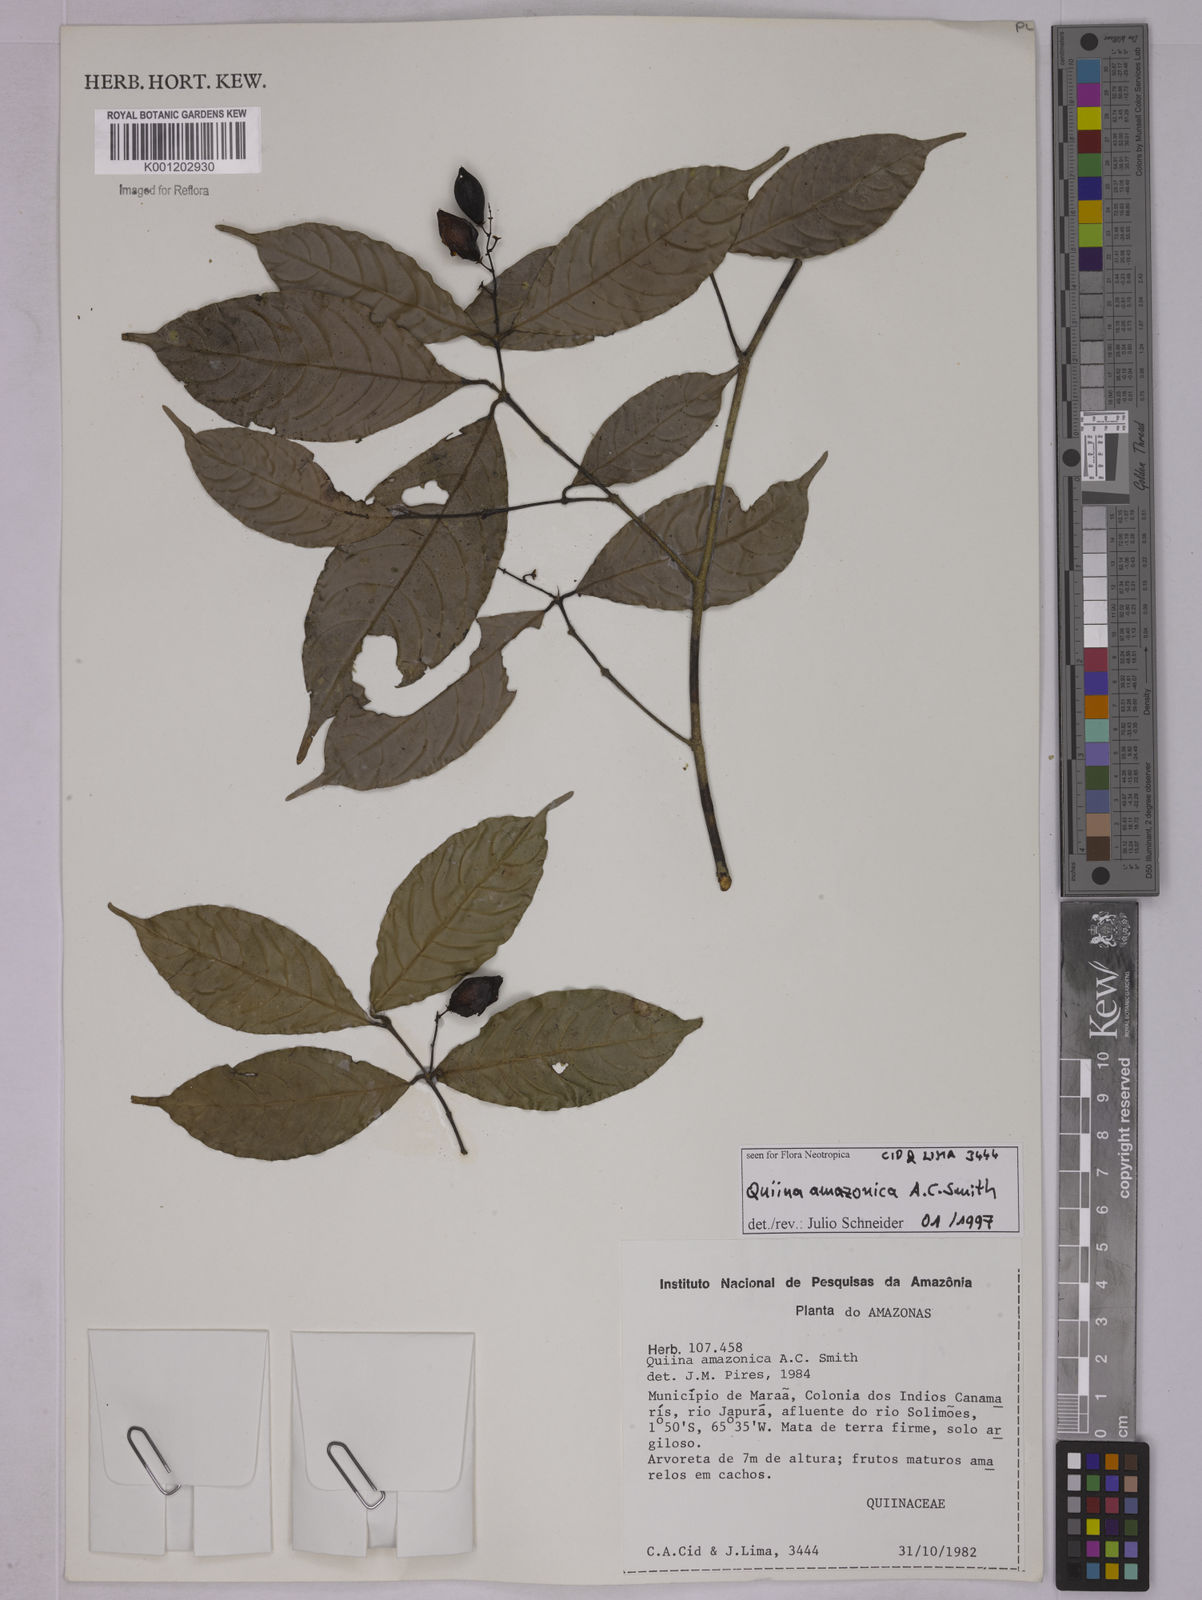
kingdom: Plantae
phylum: Tracheophyta
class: Magnoliopsida
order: Malpighiales
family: Quiinaceae
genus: Quiina
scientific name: Quiina amazonica
